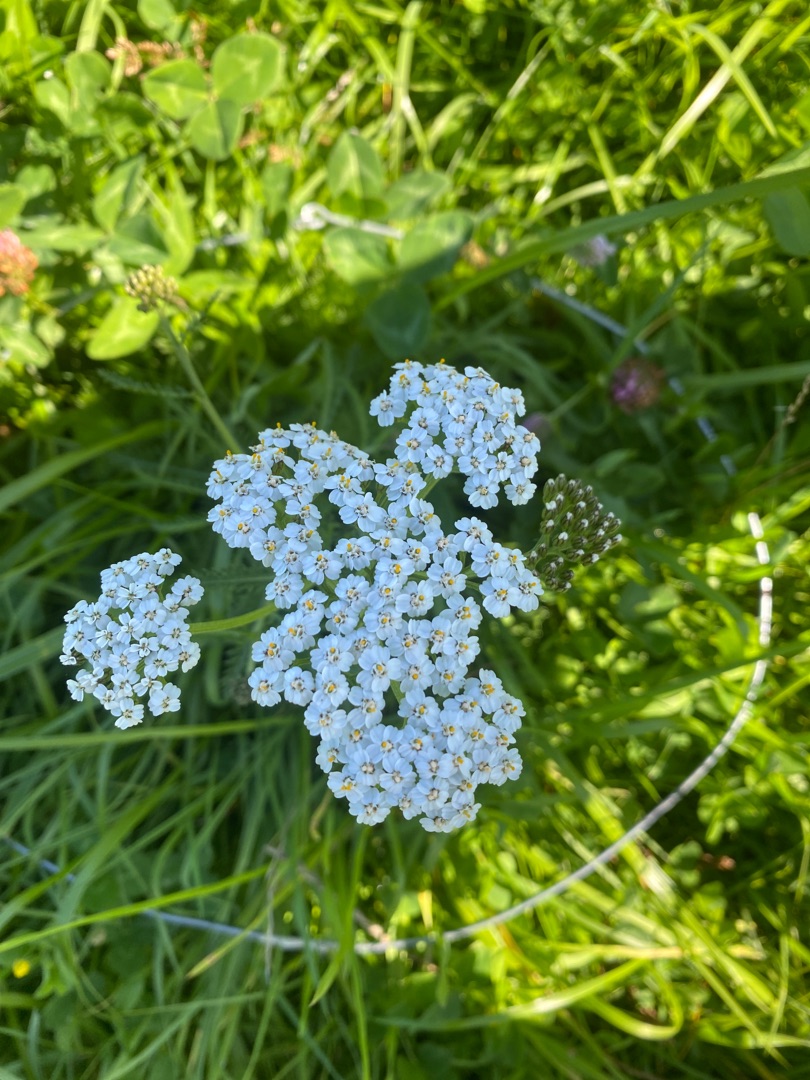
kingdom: Plantae
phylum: Tracheophyta
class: Magnoliopsida
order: Asterales
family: Asteraceae
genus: Achillea
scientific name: Achillea millefolium
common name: Almindelig røllike
